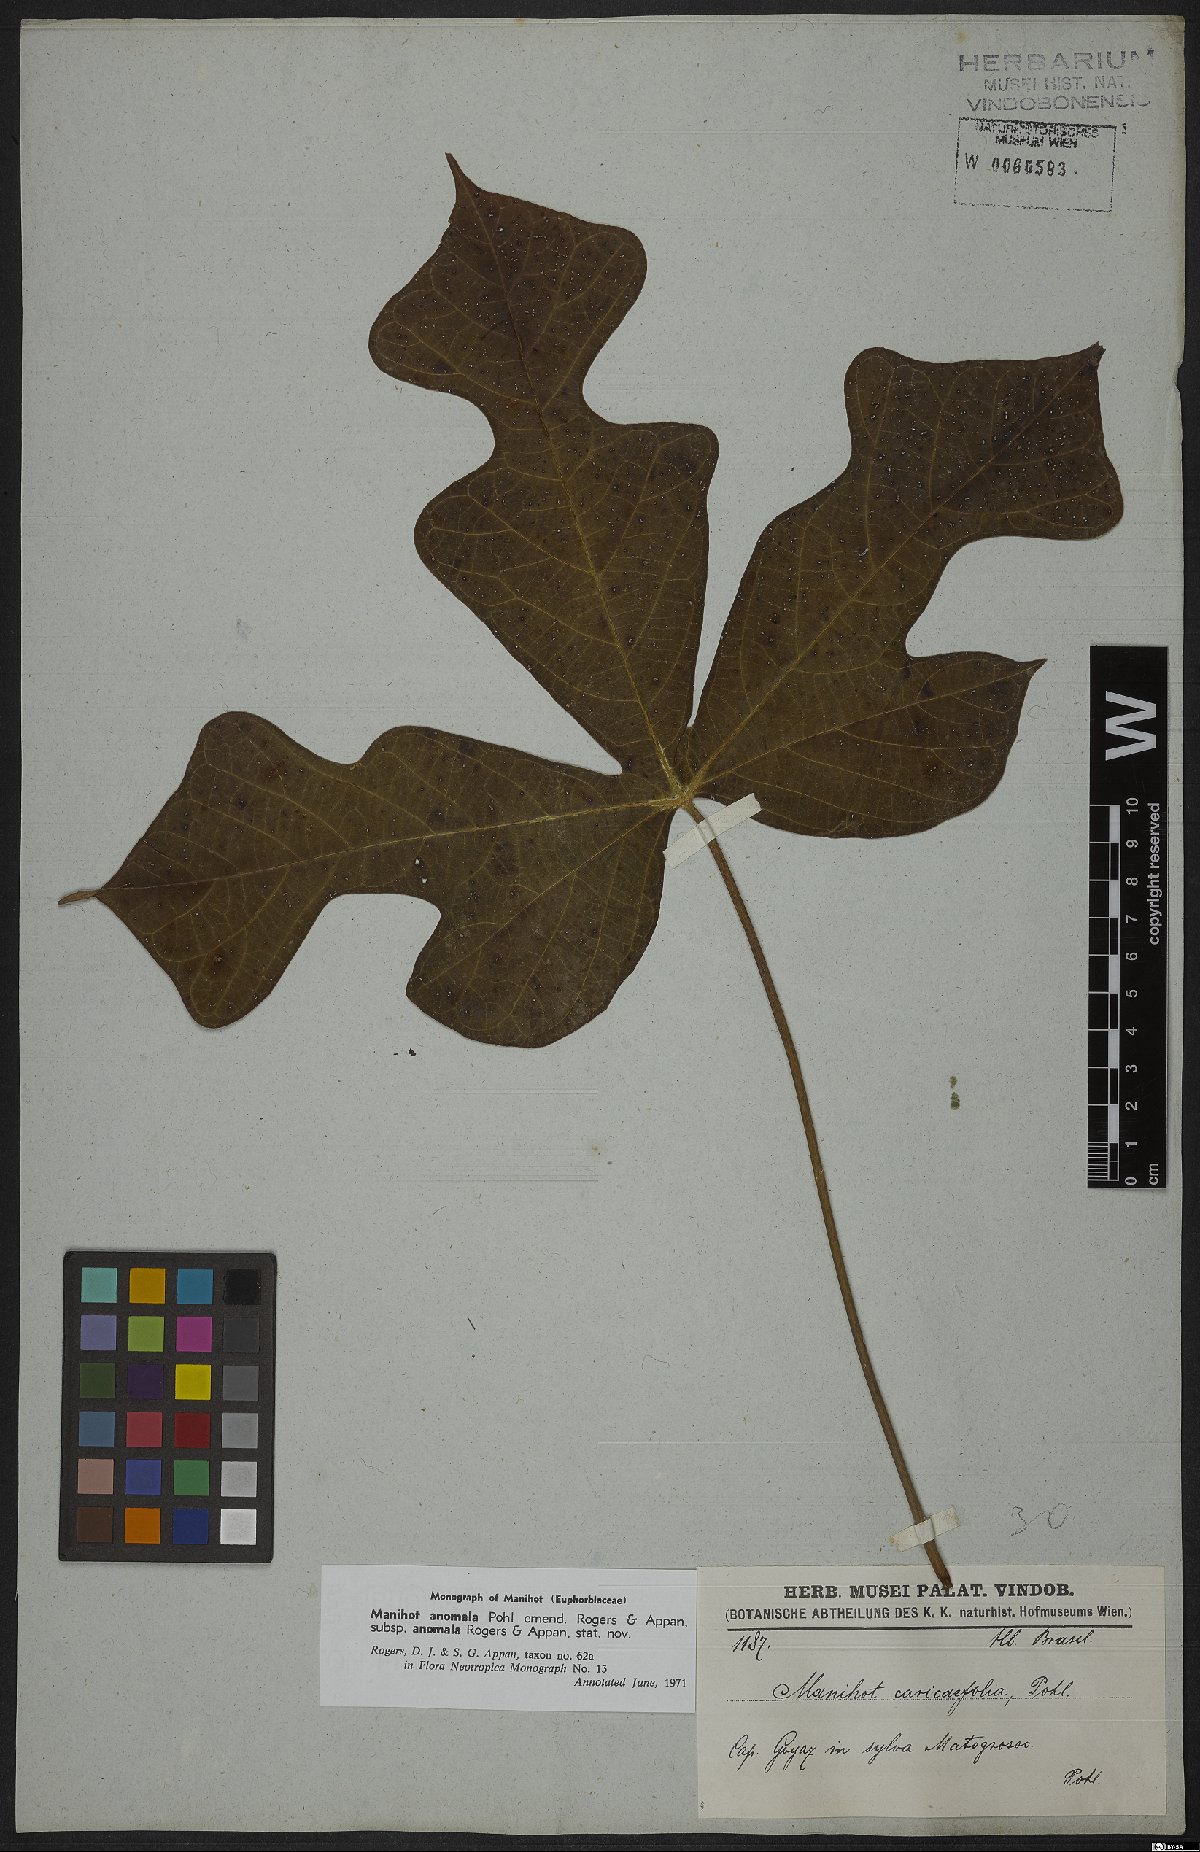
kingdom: Plantae
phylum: Tracheophyta
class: Magnoliopsida
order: Malpighiales
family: Euphorbiaceae
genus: Manihot
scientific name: Manihot anomala
